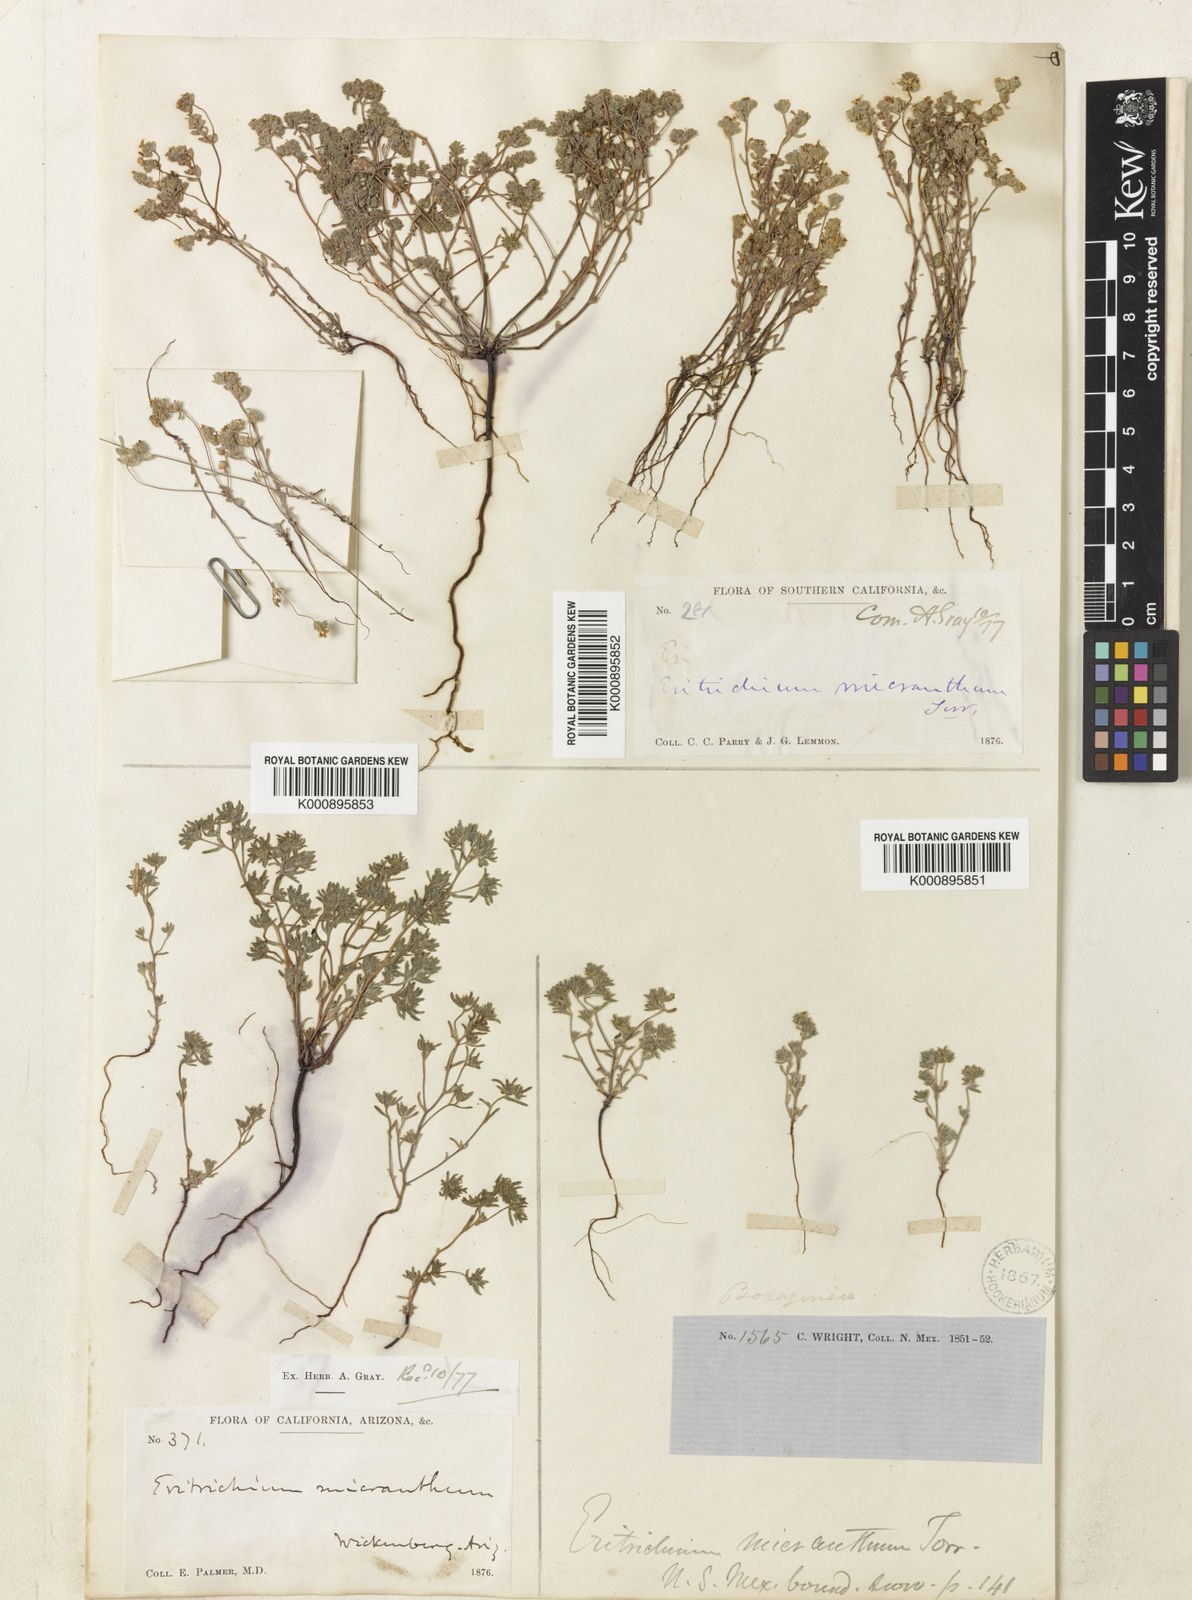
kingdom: Plantae
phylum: Tracheophyta
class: Magnoliopsida
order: Boraginales
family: Boraginaceae
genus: Eremocarya
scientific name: Eremocarya micrantha
